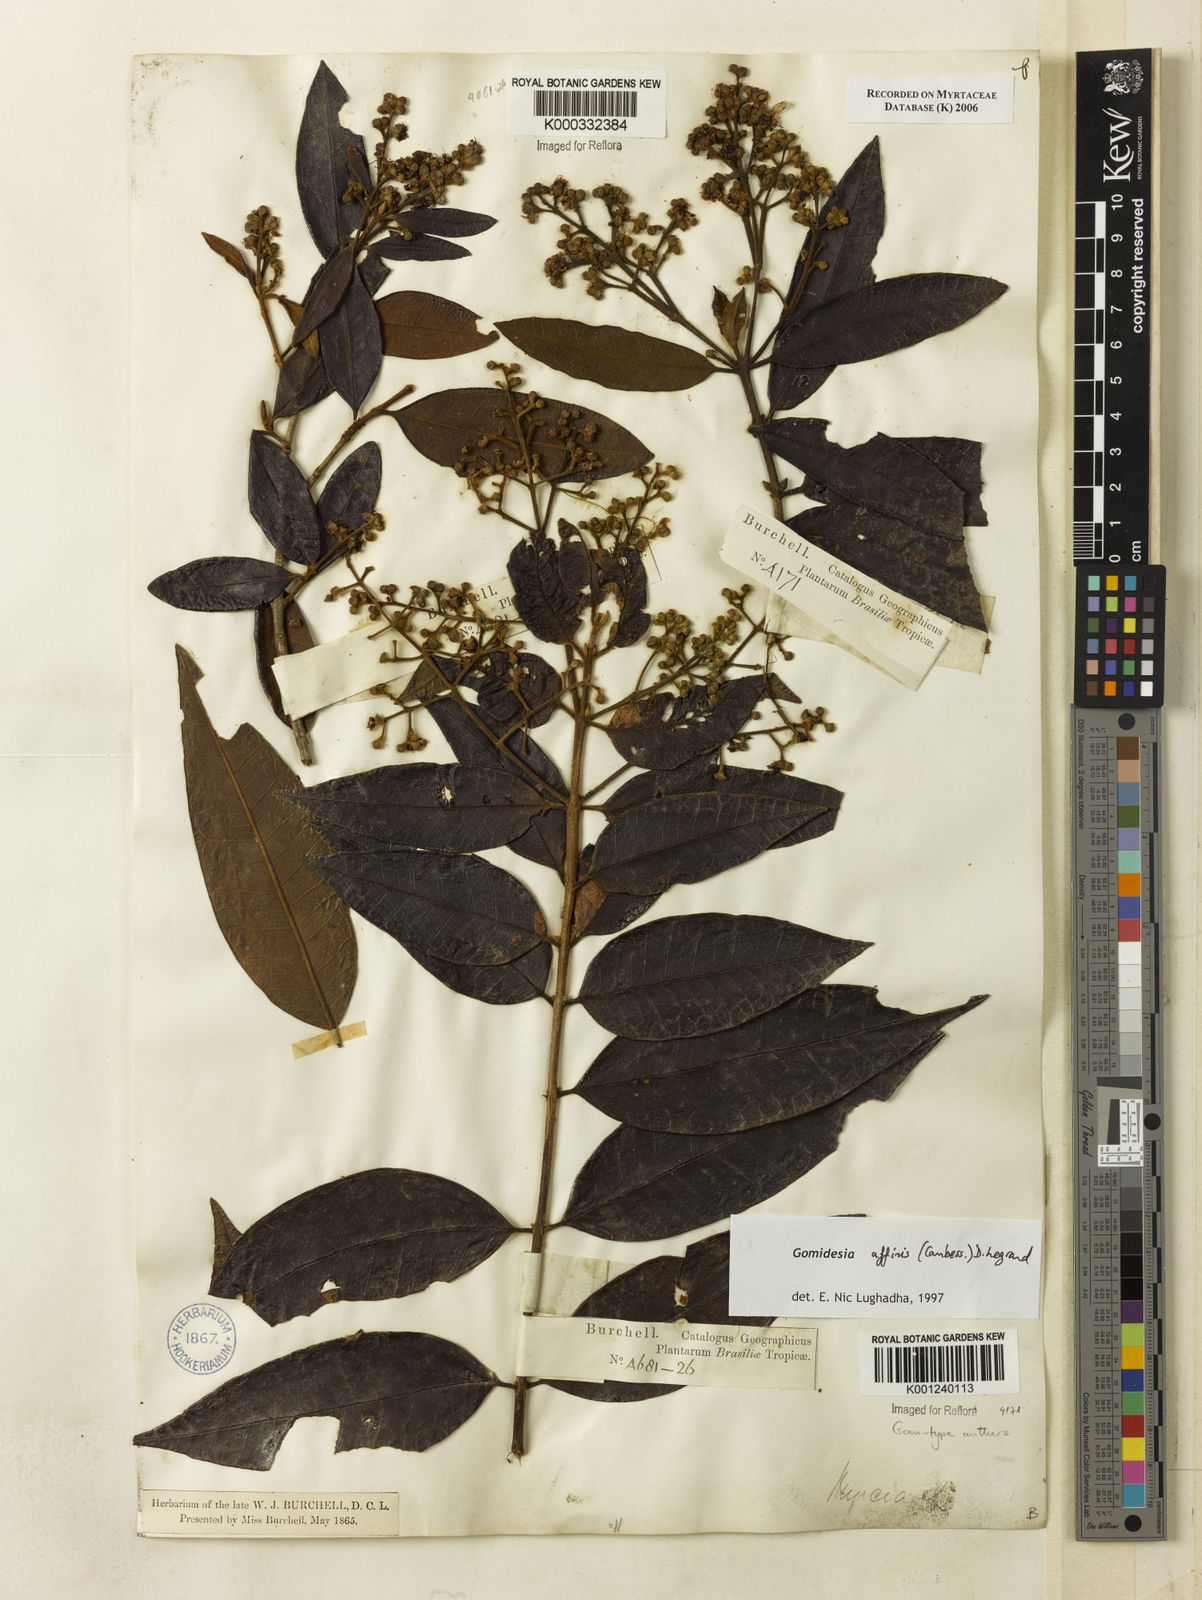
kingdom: Plantae
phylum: Tracheophyta
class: Magnoliopsida
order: Myrtales
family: Myrtaceae
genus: Myrcia
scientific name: Myrcia hebepetala
